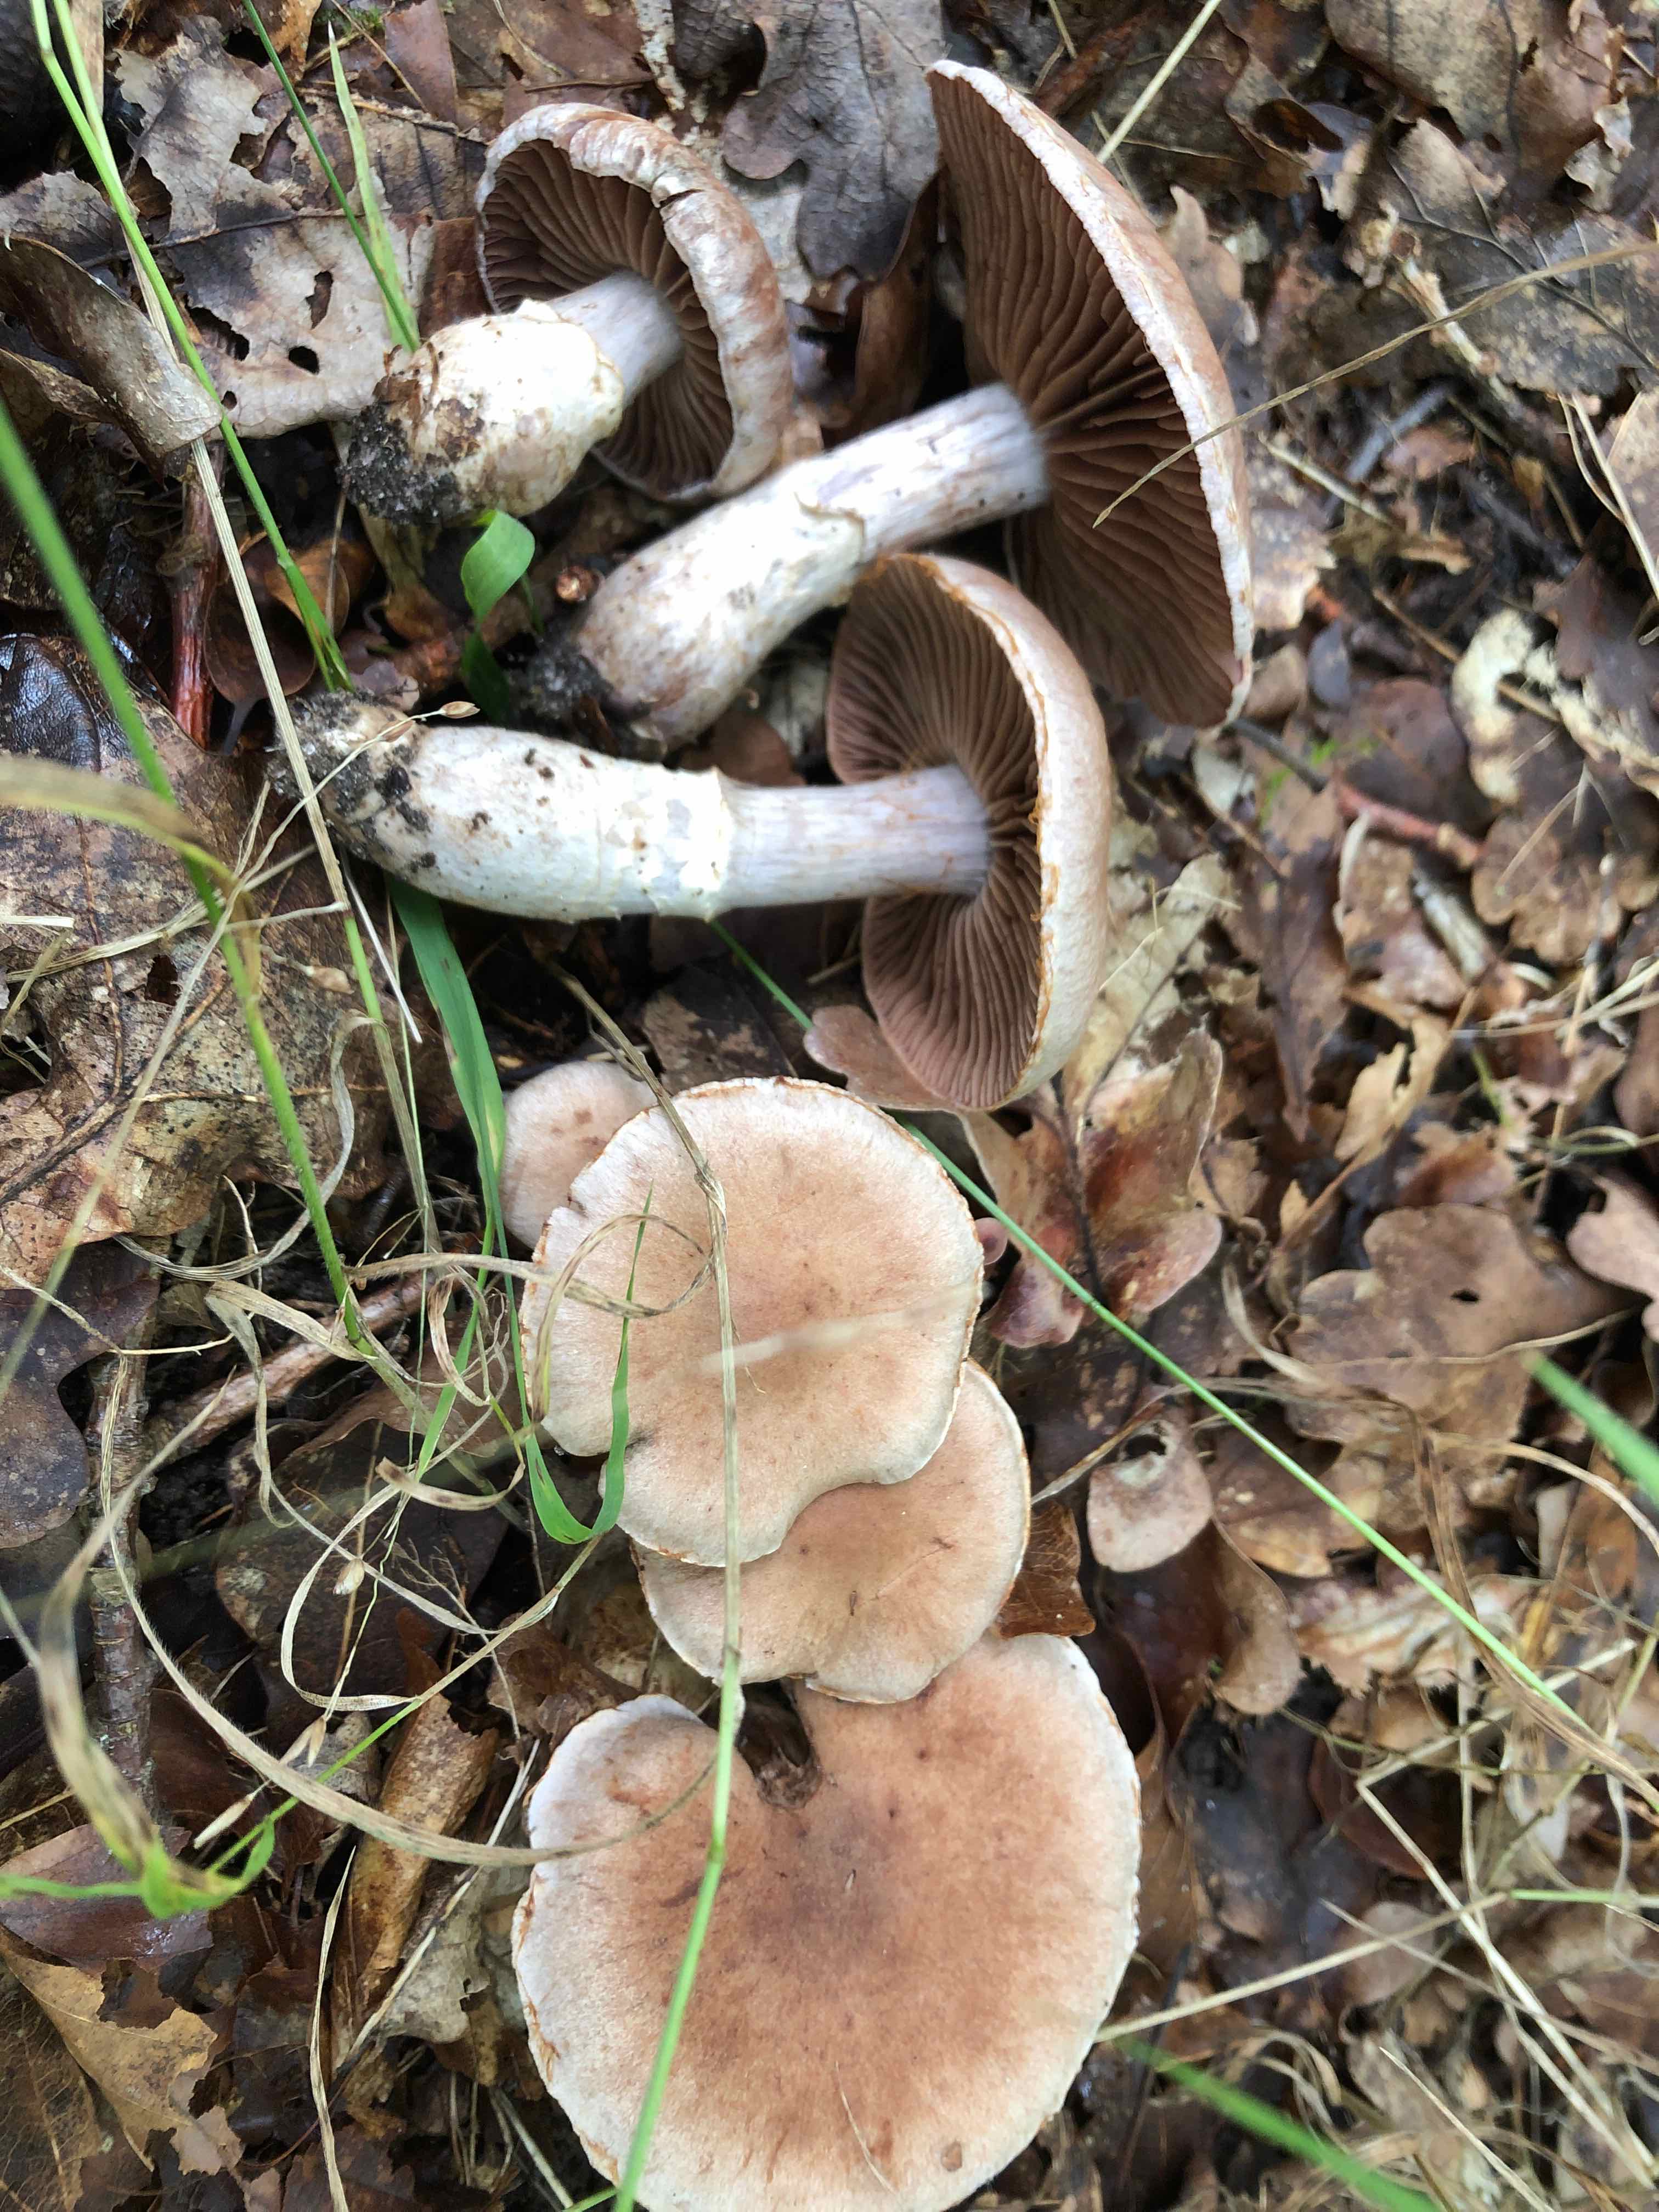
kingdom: Fungi
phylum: Basidiomycota
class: Agaricomycetes
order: Agaricales
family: Cortinariaceae
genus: Cortinarius
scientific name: Cortinarius torvus
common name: champignonagtig slørhat
